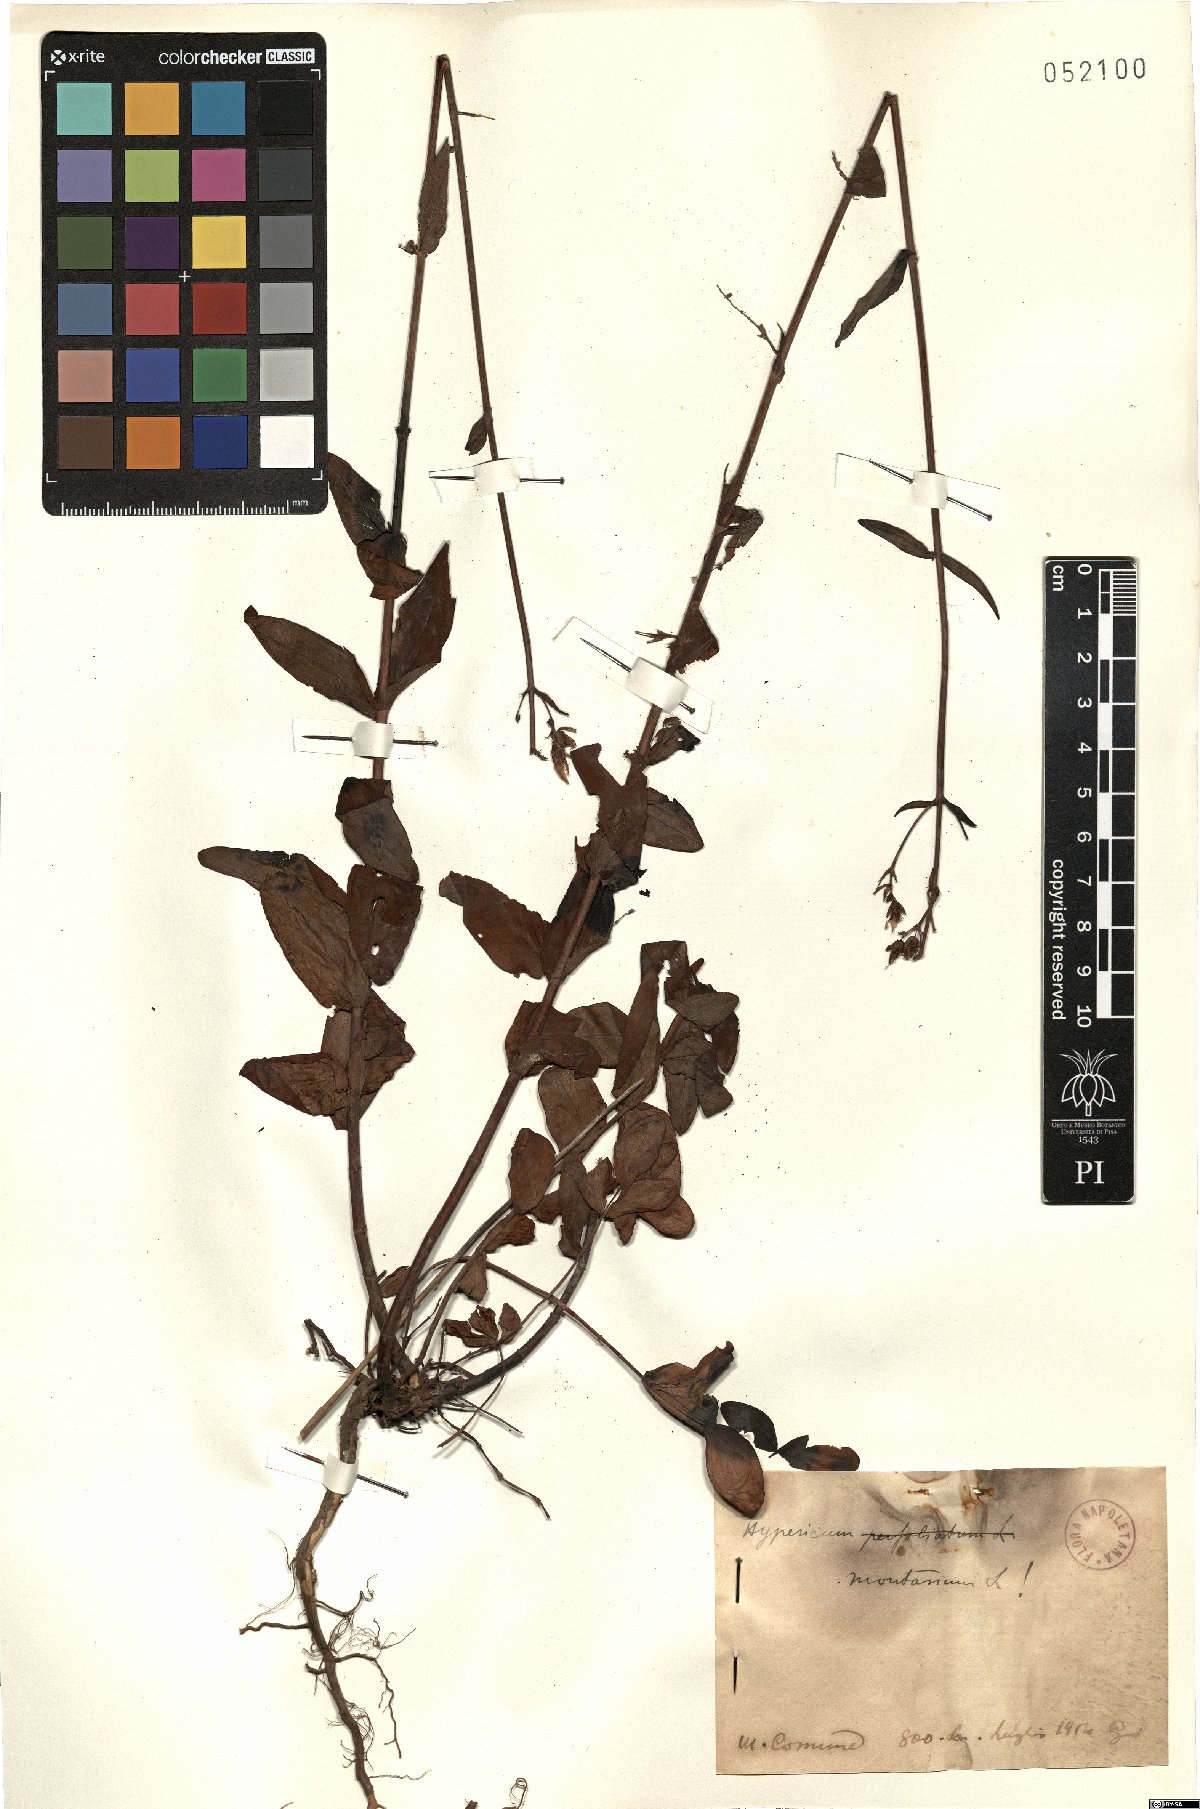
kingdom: Plantae
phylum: Tracheophyta
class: Magnoliopsida
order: Malpighiales
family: Hypericaceae
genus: Hypericum
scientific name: Hypericum montanum
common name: Pale st. john's-wort
